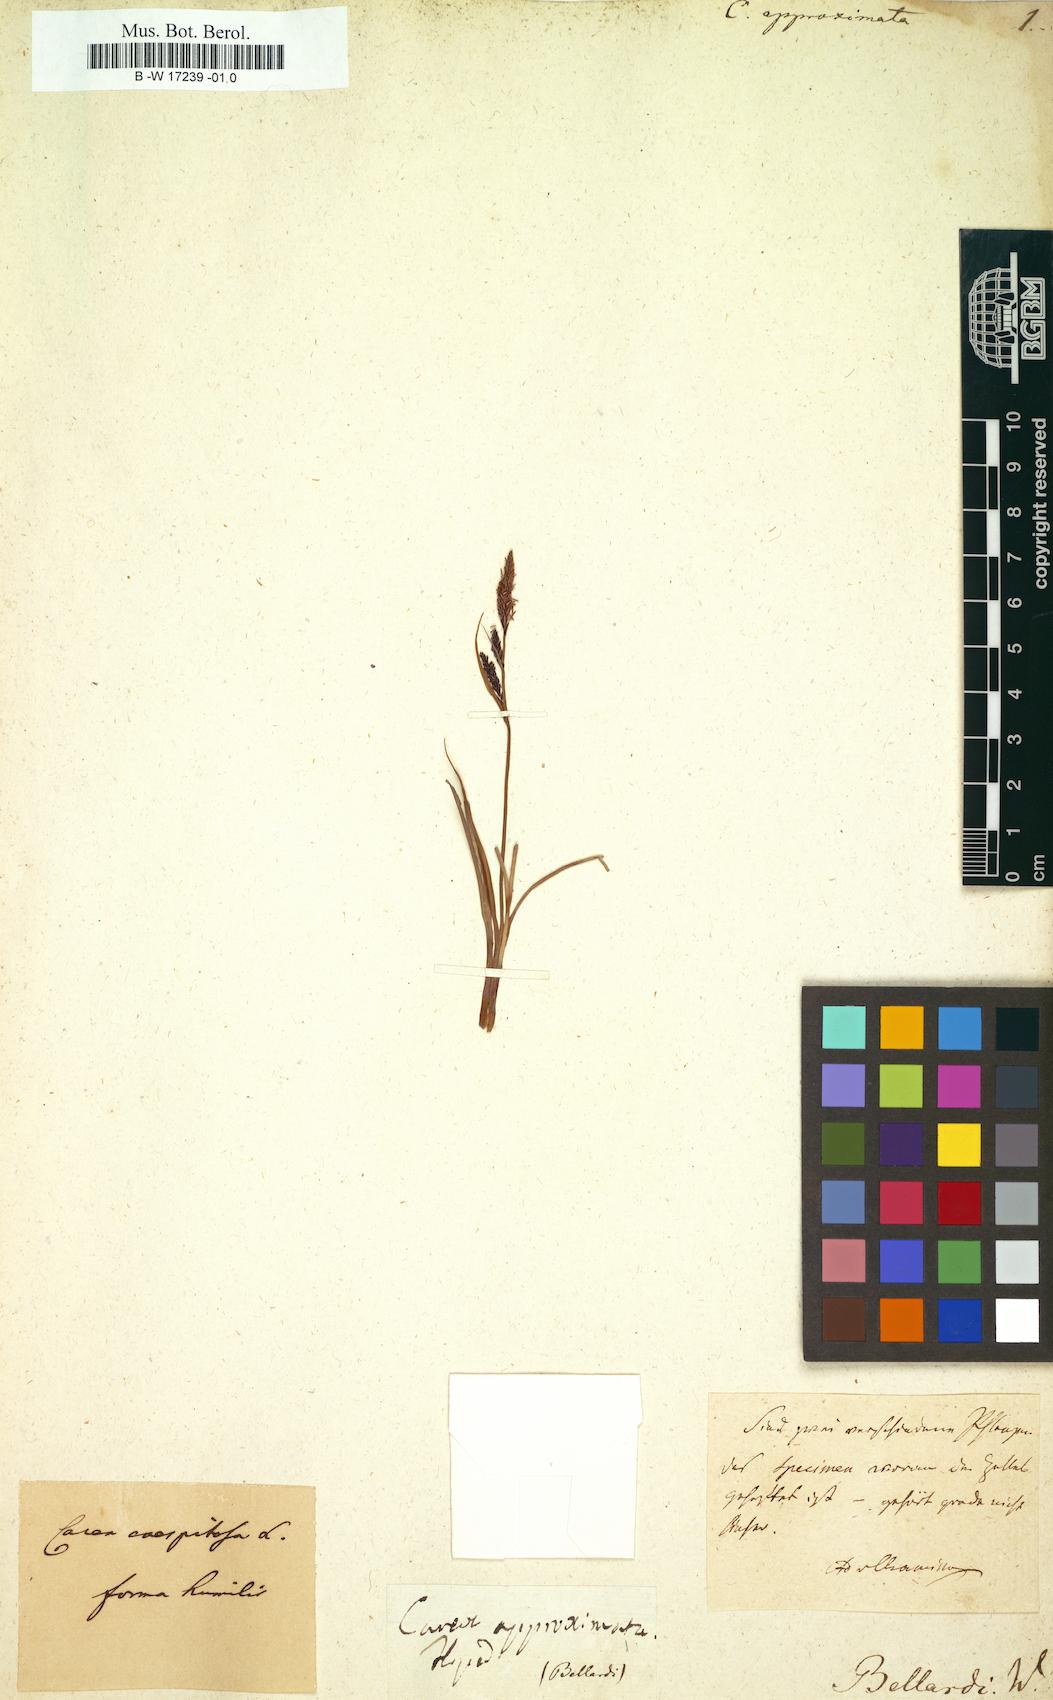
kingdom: Plantae
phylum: Tracheophyta
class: Liliopsida
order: Poales
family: Cyperaceae
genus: Carex
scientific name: Carex ericetorum
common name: Rare spring-sedge
